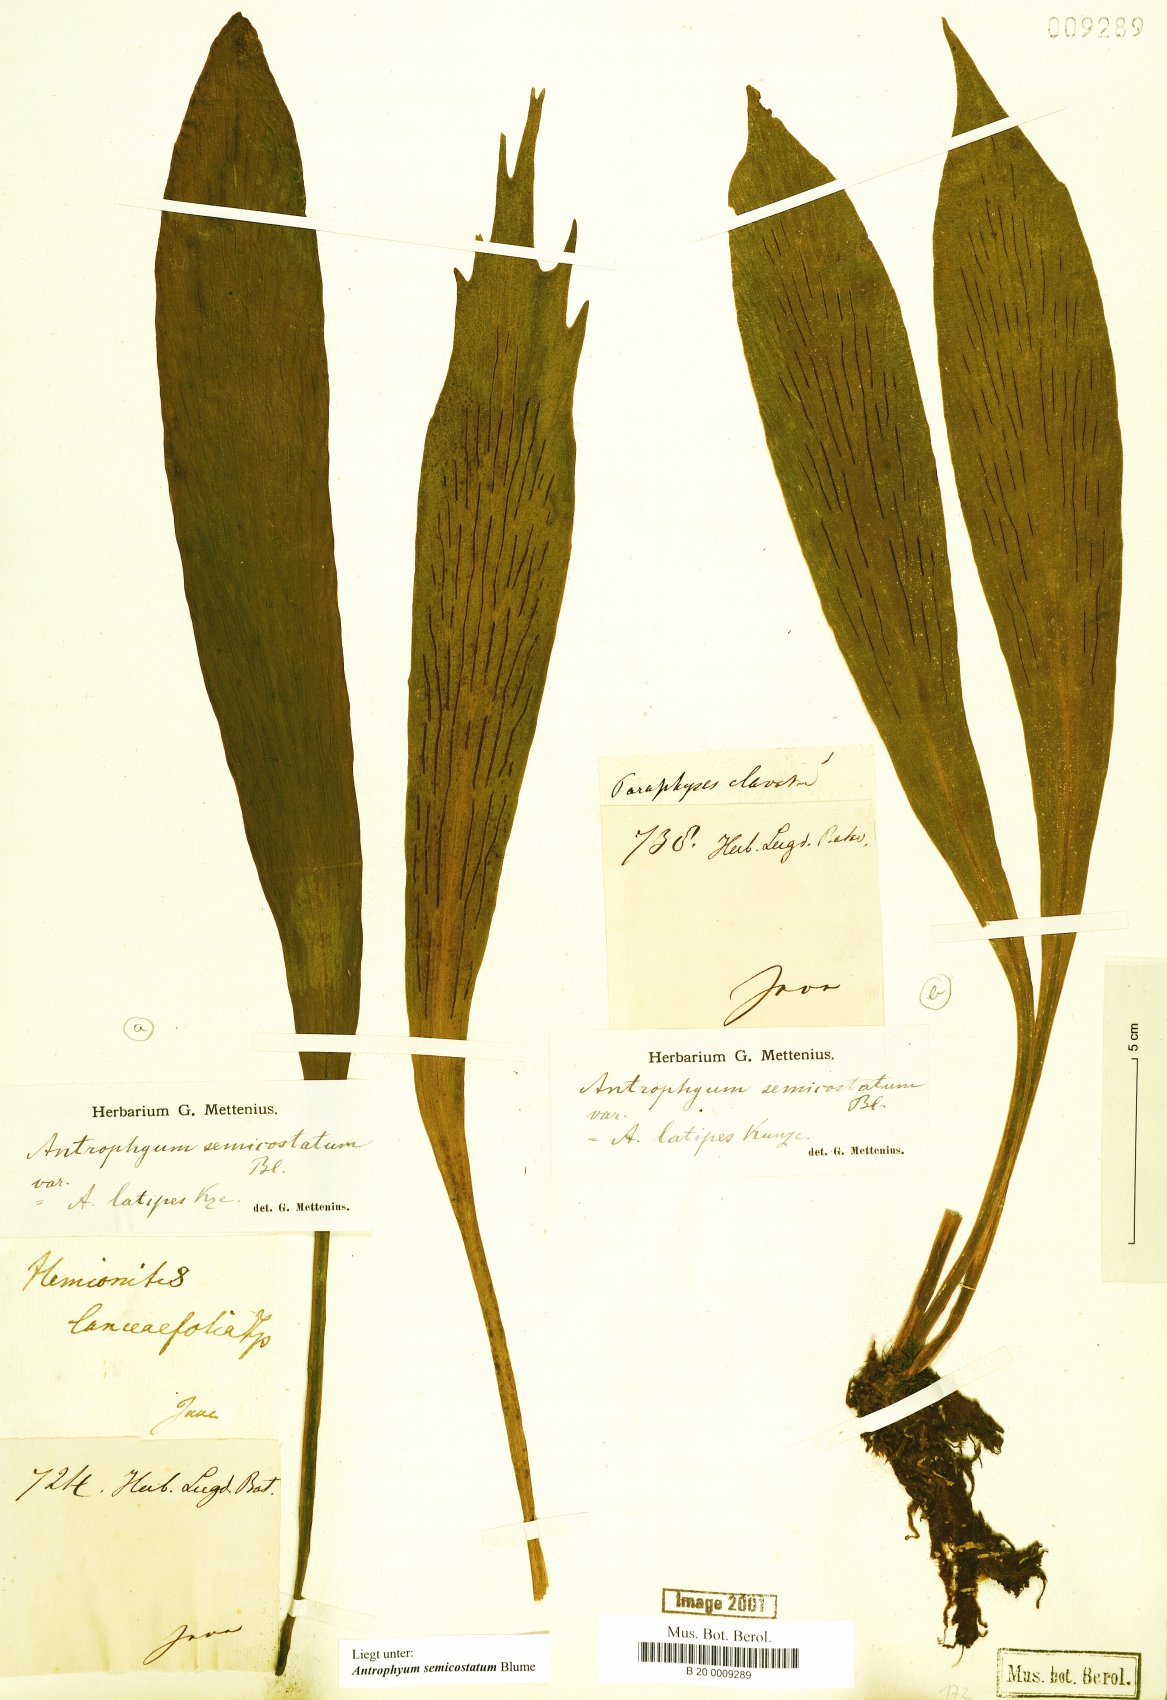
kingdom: Plantae
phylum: Tracheophyta
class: Polypodiopsida
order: Polypodiales
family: Pteridaceae
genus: Antrophyum
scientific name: Antrophyum semicostatum
